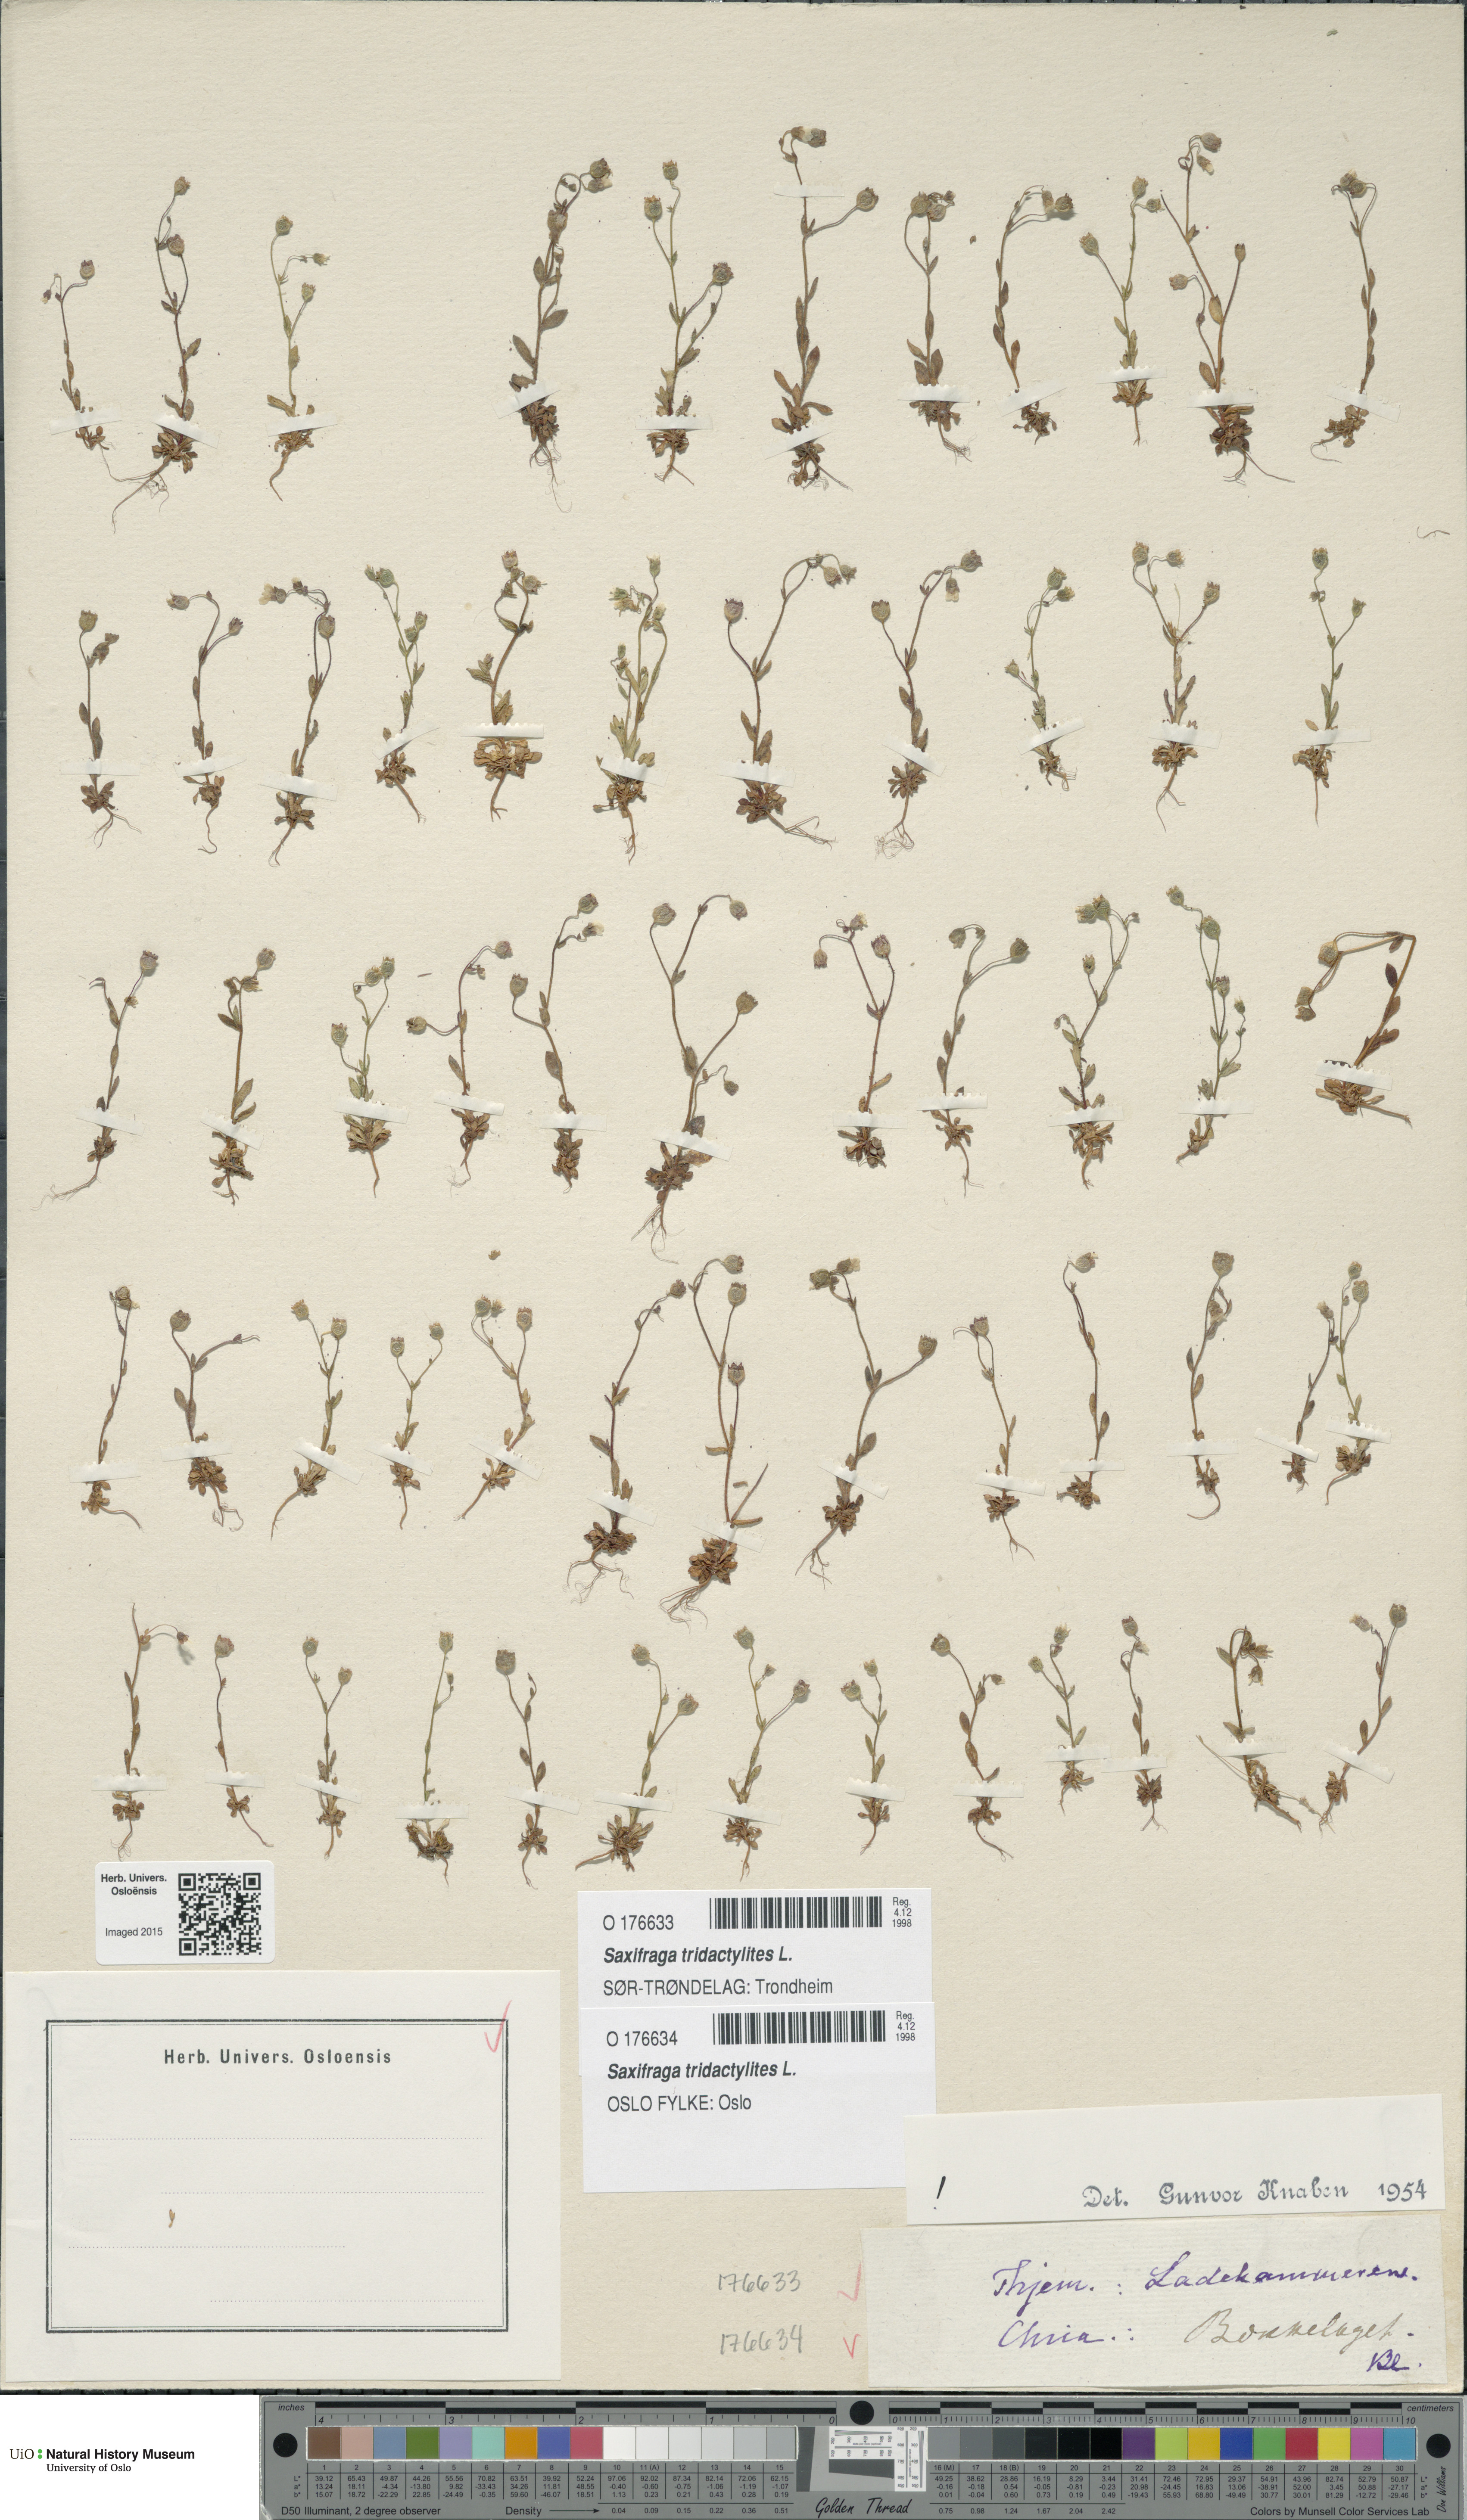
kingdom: Plantae
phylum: Tracheophyta
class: Magnoliopsida
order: Saxifragales
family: Saxifragaceae
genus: Saxifraga
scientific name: Saxifraga tridactylites
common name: Rue-leaved saxifrage
